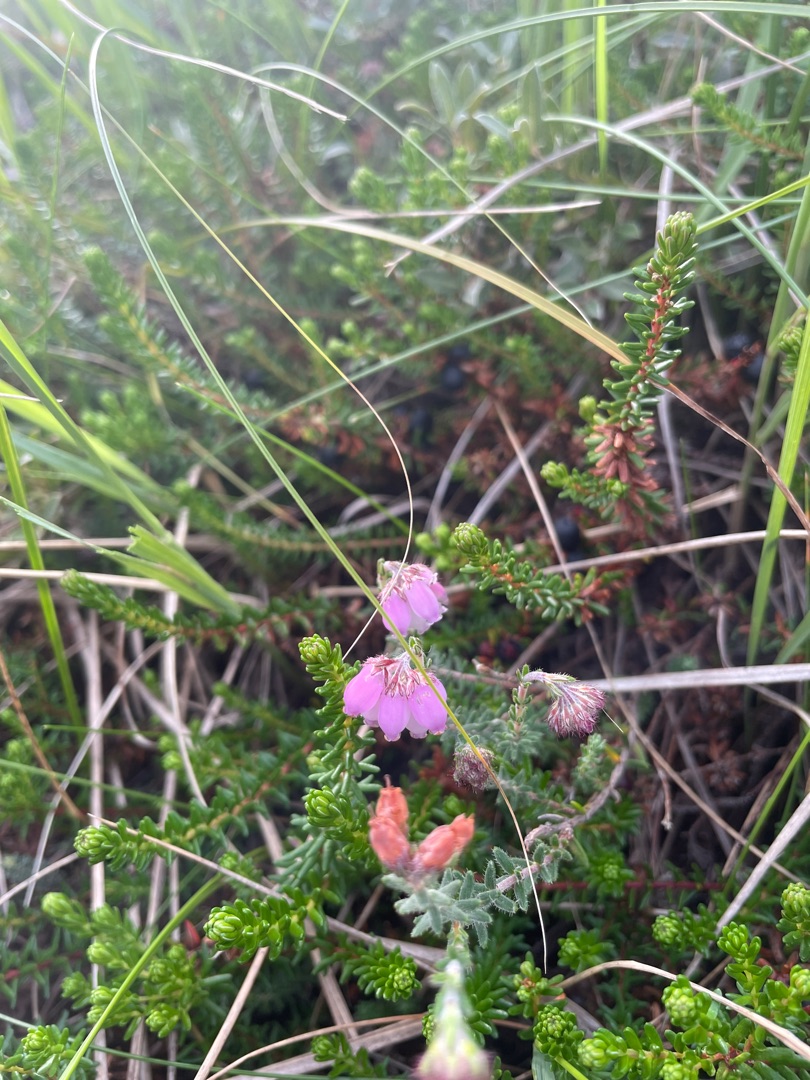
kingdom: Plantae
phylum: Tracheophyta
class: Magnoliopsida
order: Ericales
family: Ericaceae
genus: Erica
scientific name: Erica tetralix
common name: Klokkelyng
